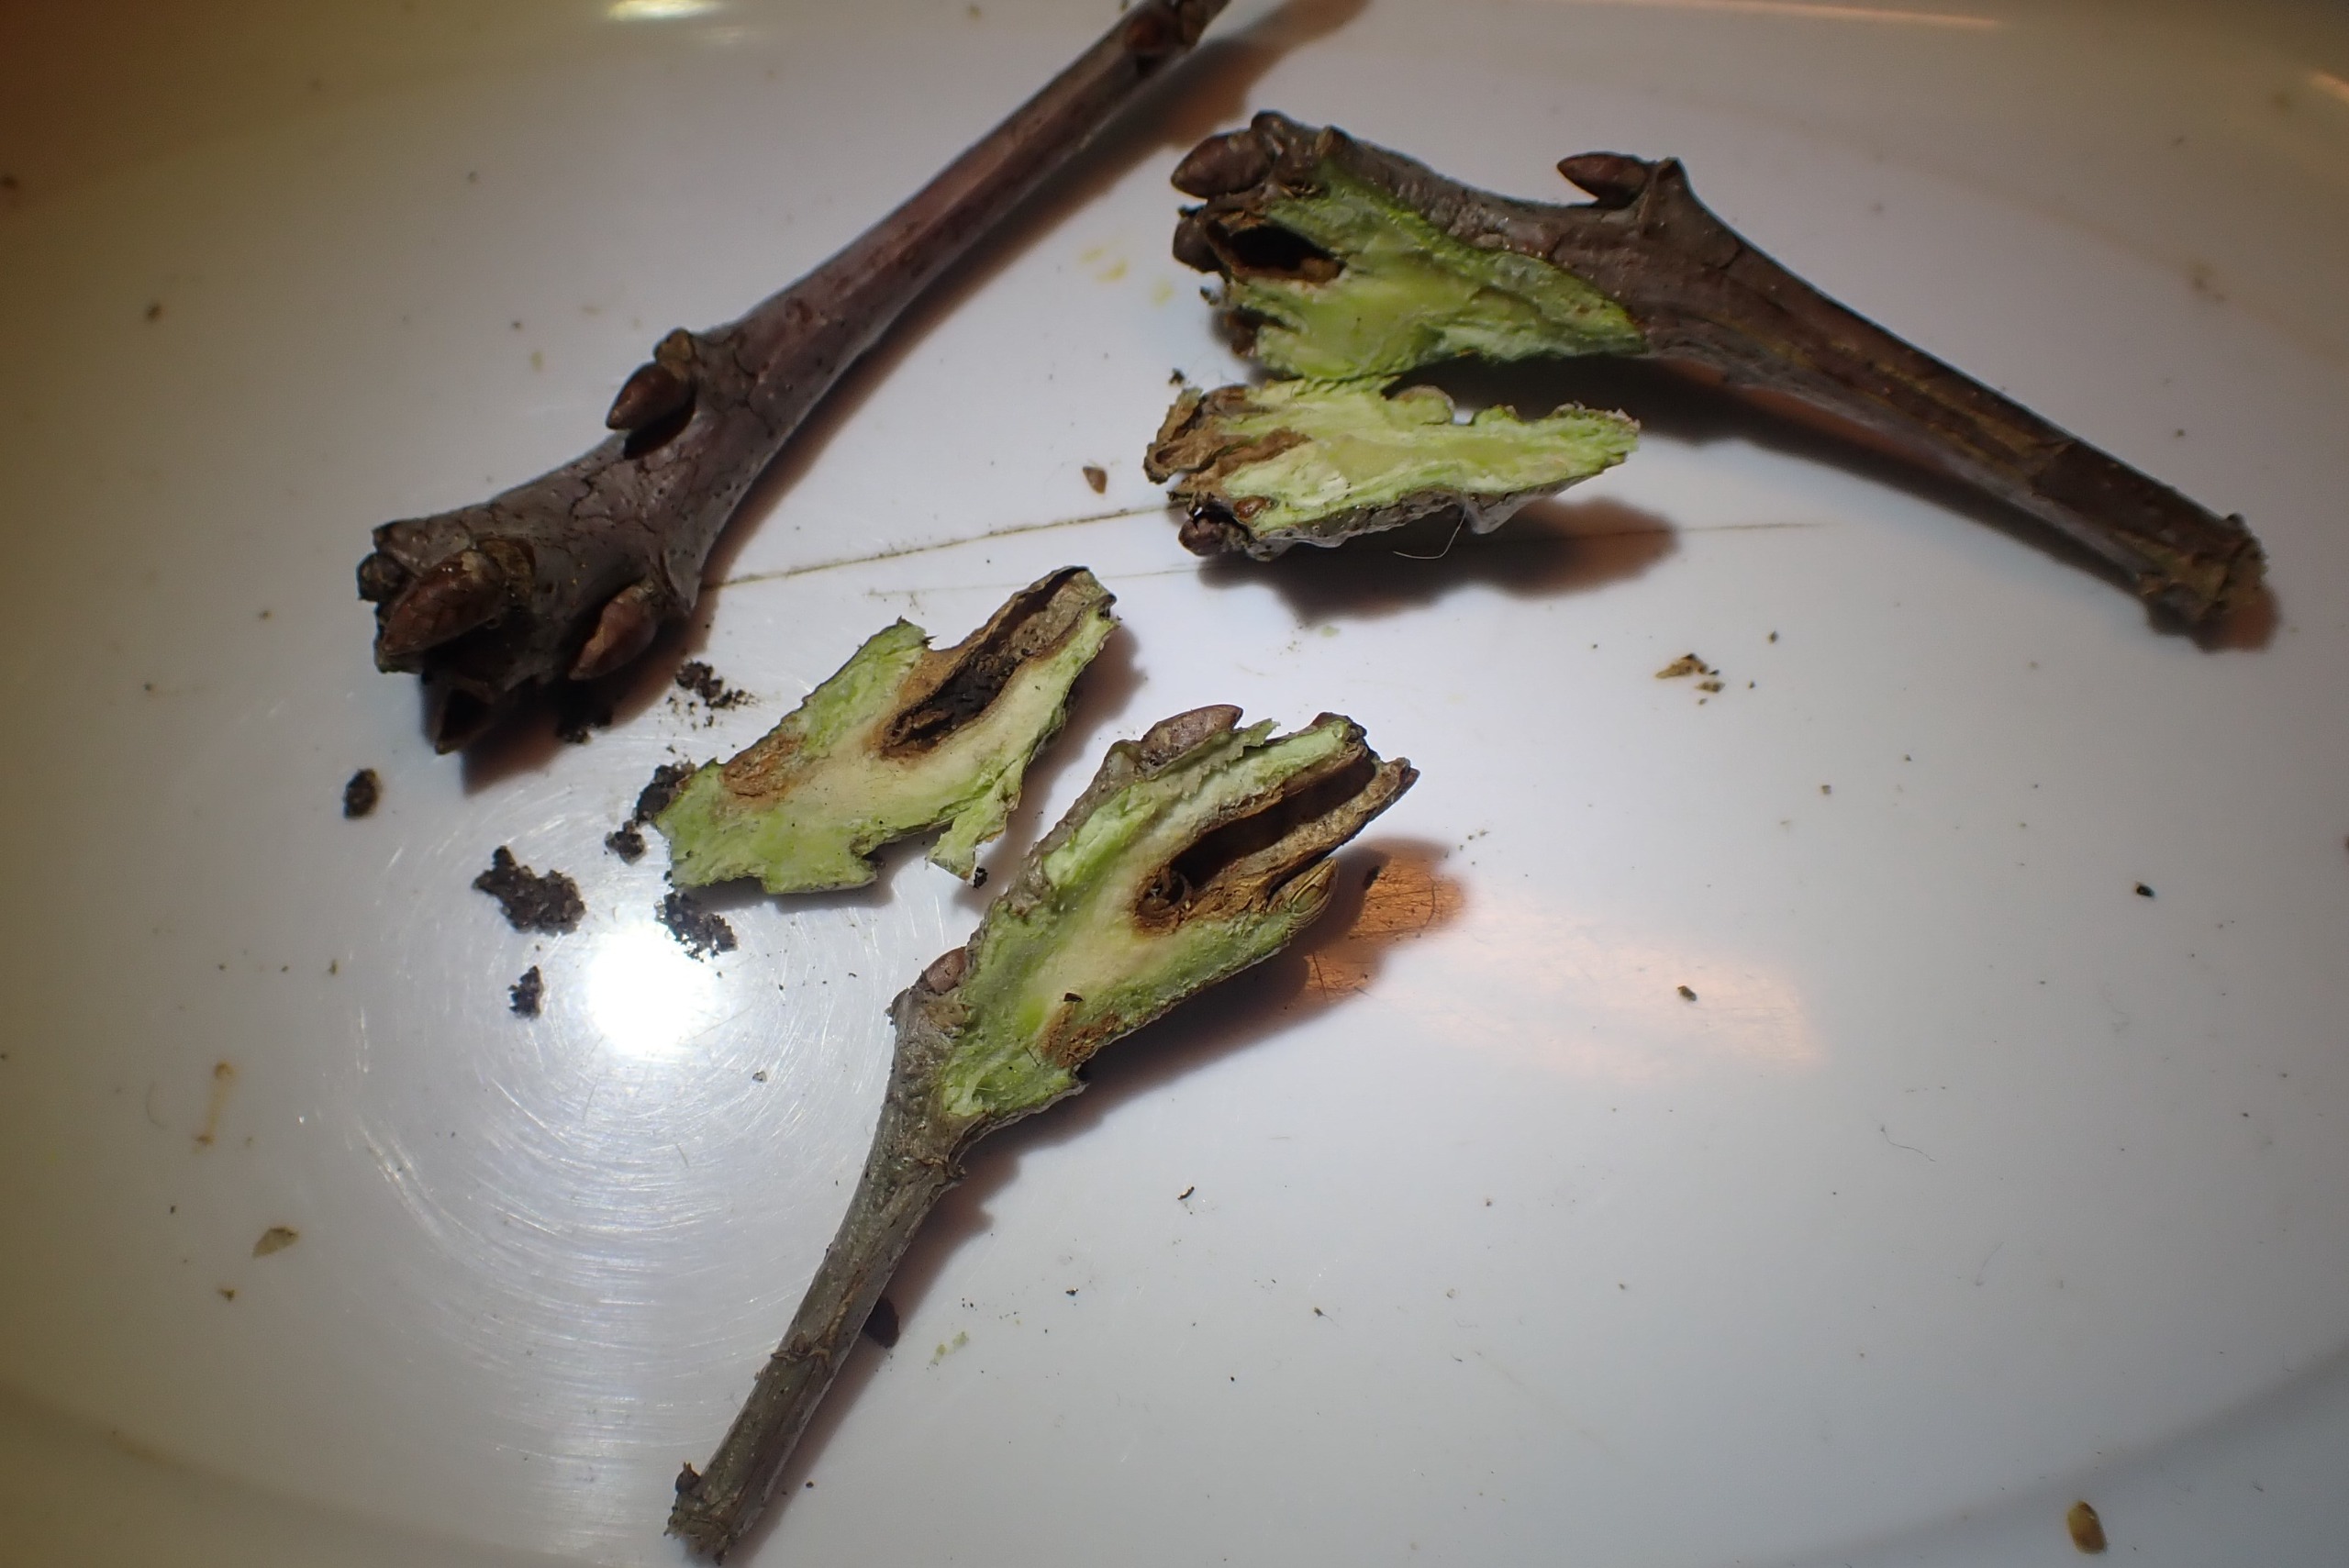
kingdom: Animalia
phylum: Arthropoda
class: Insecta
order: Hymenoptera
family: Cynipidae
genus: Andricus
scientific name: Andricus inflator
